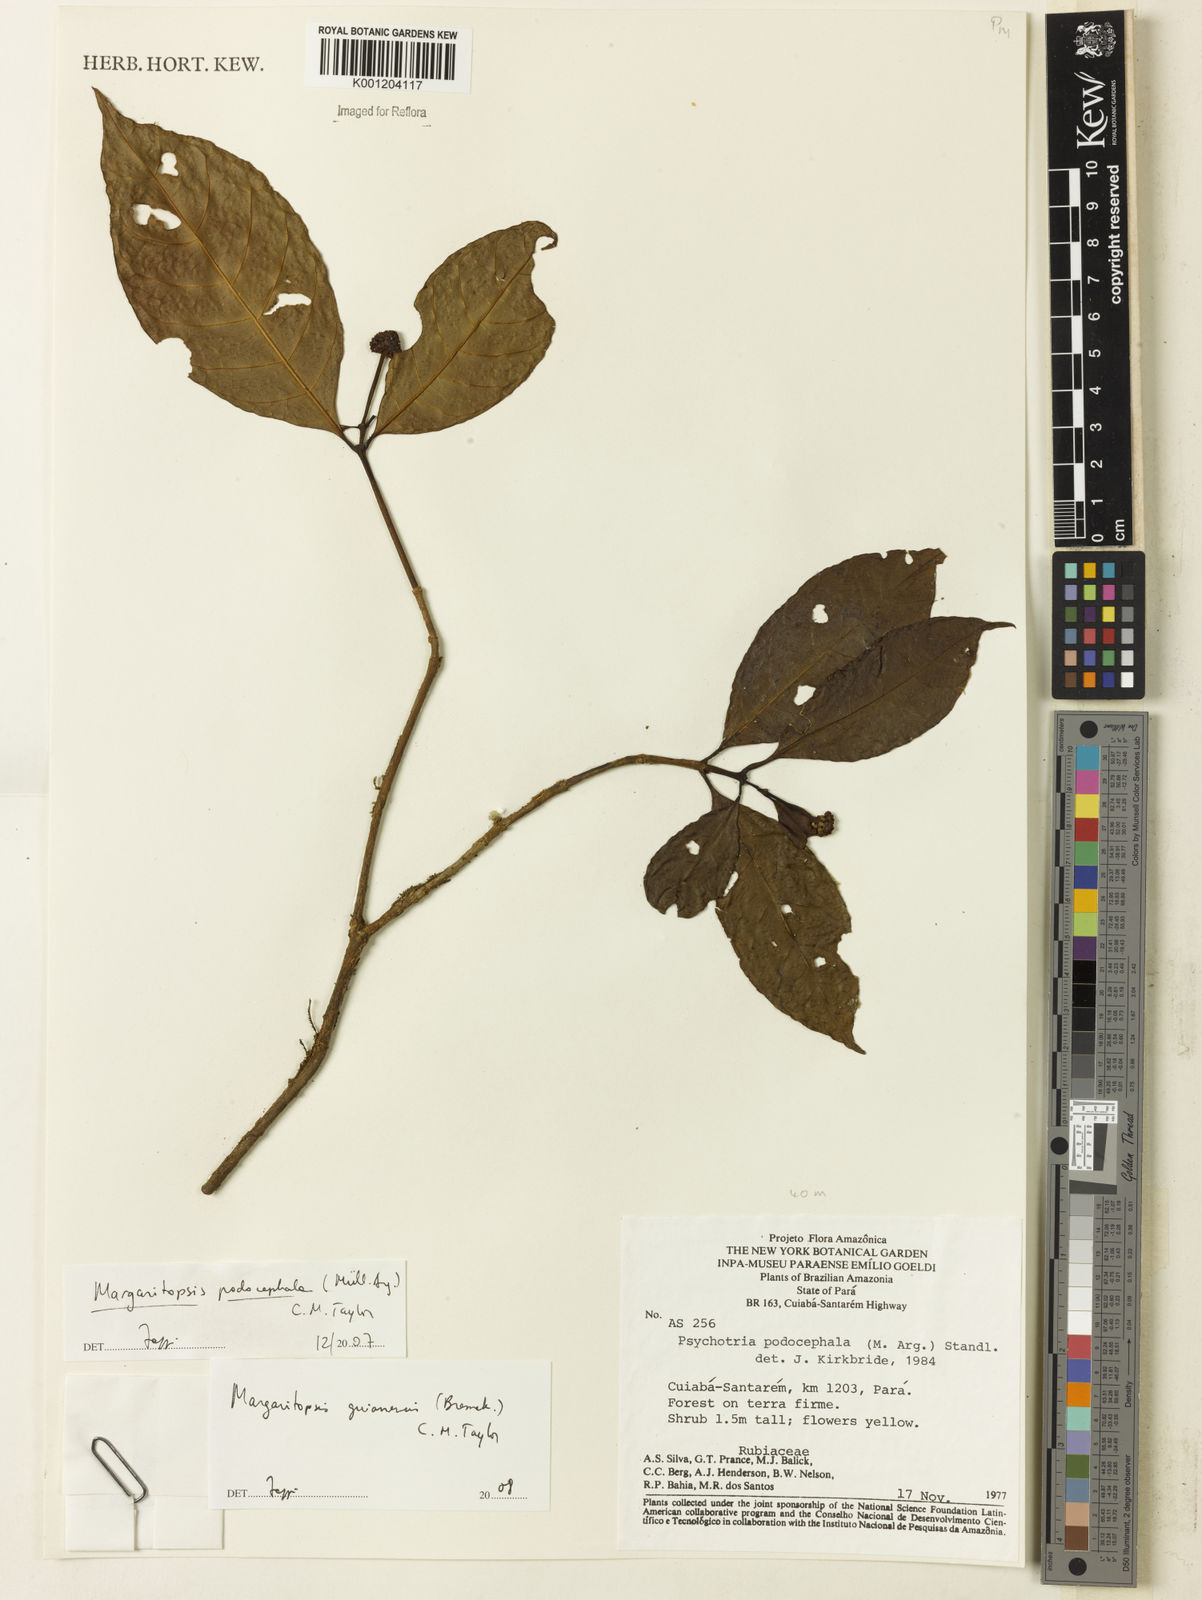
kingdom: Plantae
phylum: Tracheophyta
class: Magnoliopsida
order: Gentianales
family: Rubiaceae
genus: Eumachia
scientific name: Eumachia guianensis
